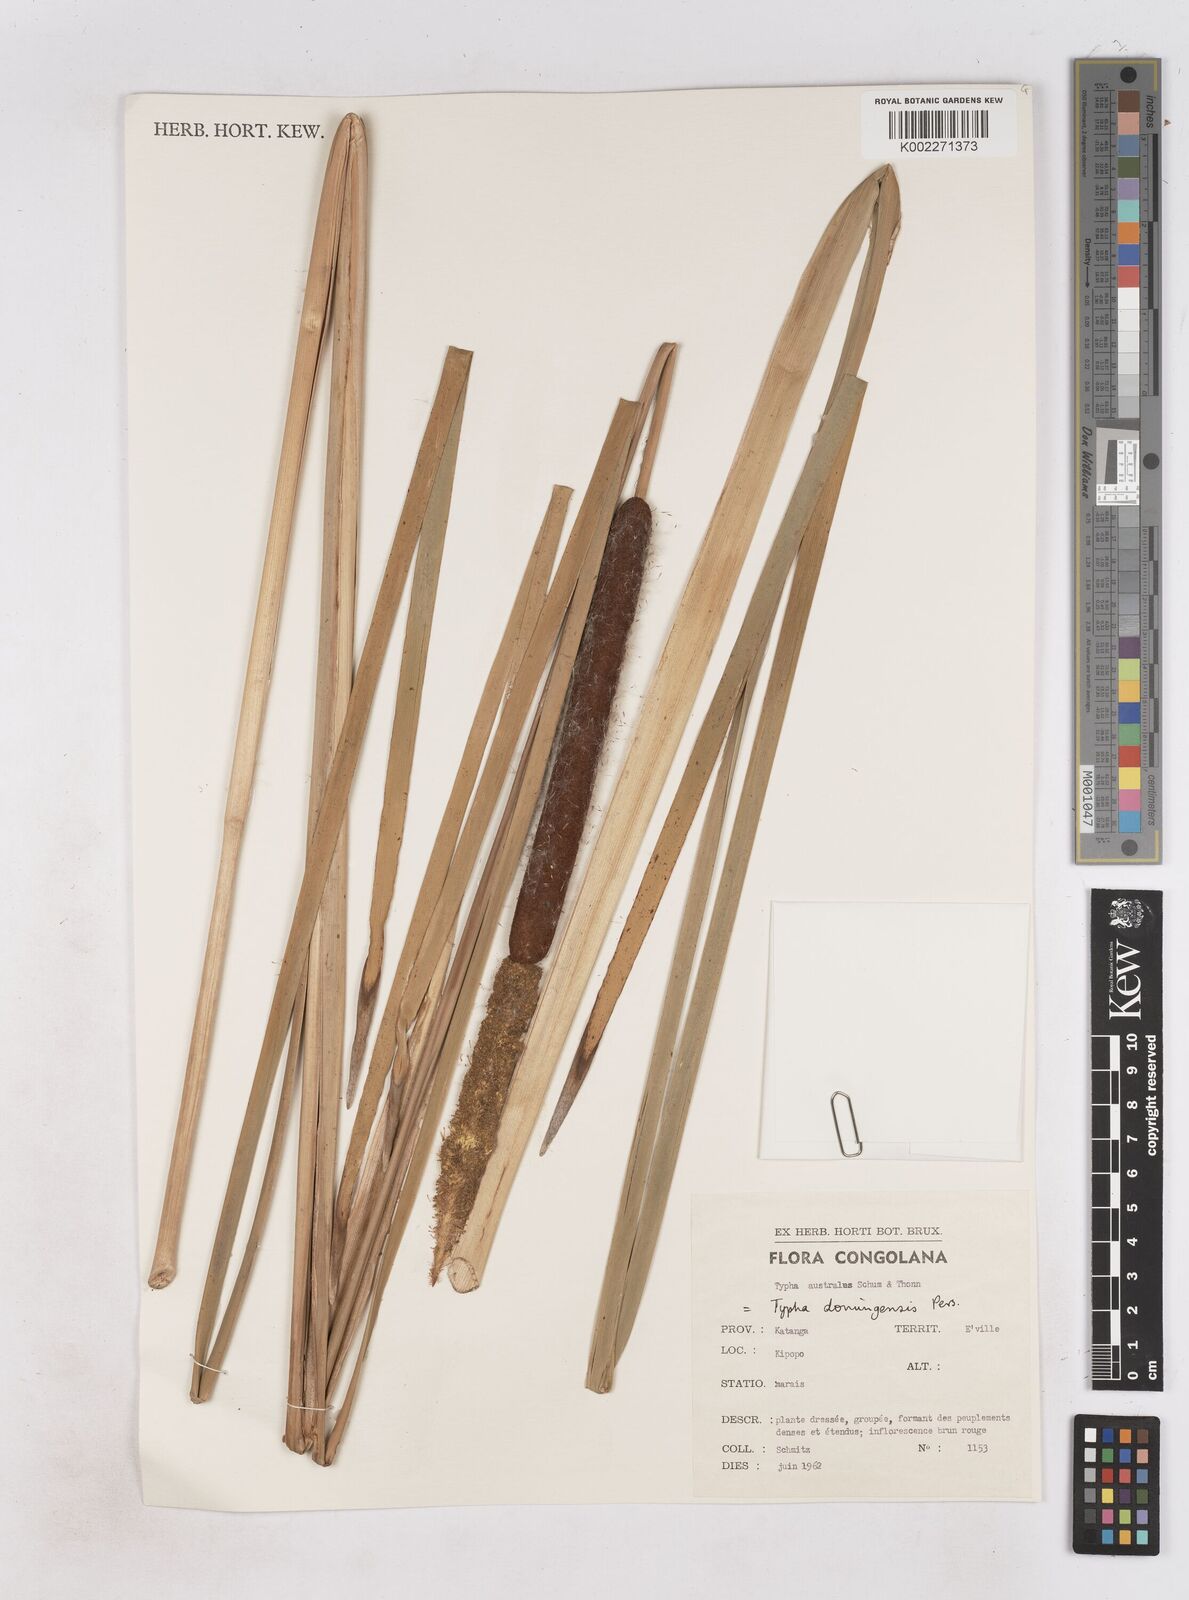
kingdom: Plantae
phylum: Tracheophyta
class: Liliopsida
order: Poales
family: Typhaceae
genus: Typha
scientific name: Typha domingensis
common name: Southern cattail
